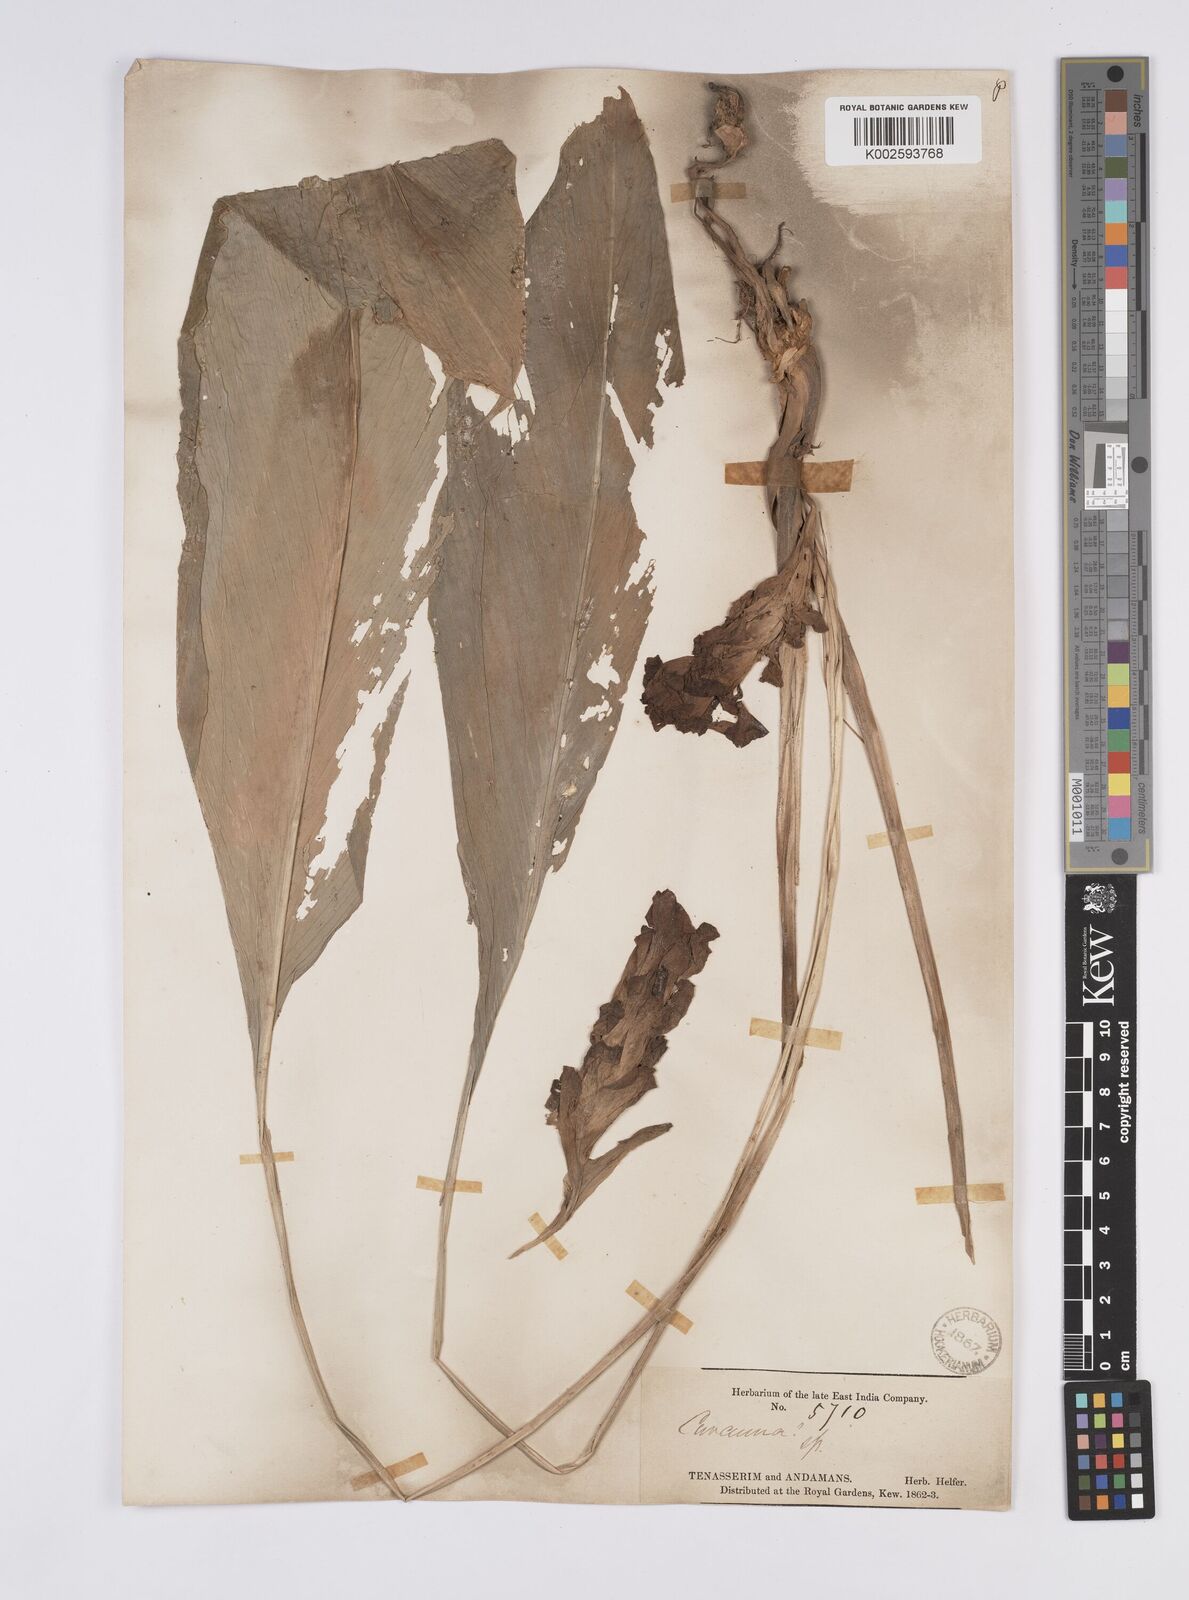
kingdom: Plantae
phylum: Tracheophyta
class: Liliopsida
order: Zingiberales
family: Zingiberaceae
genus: Curcuma
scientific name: Curcuma
